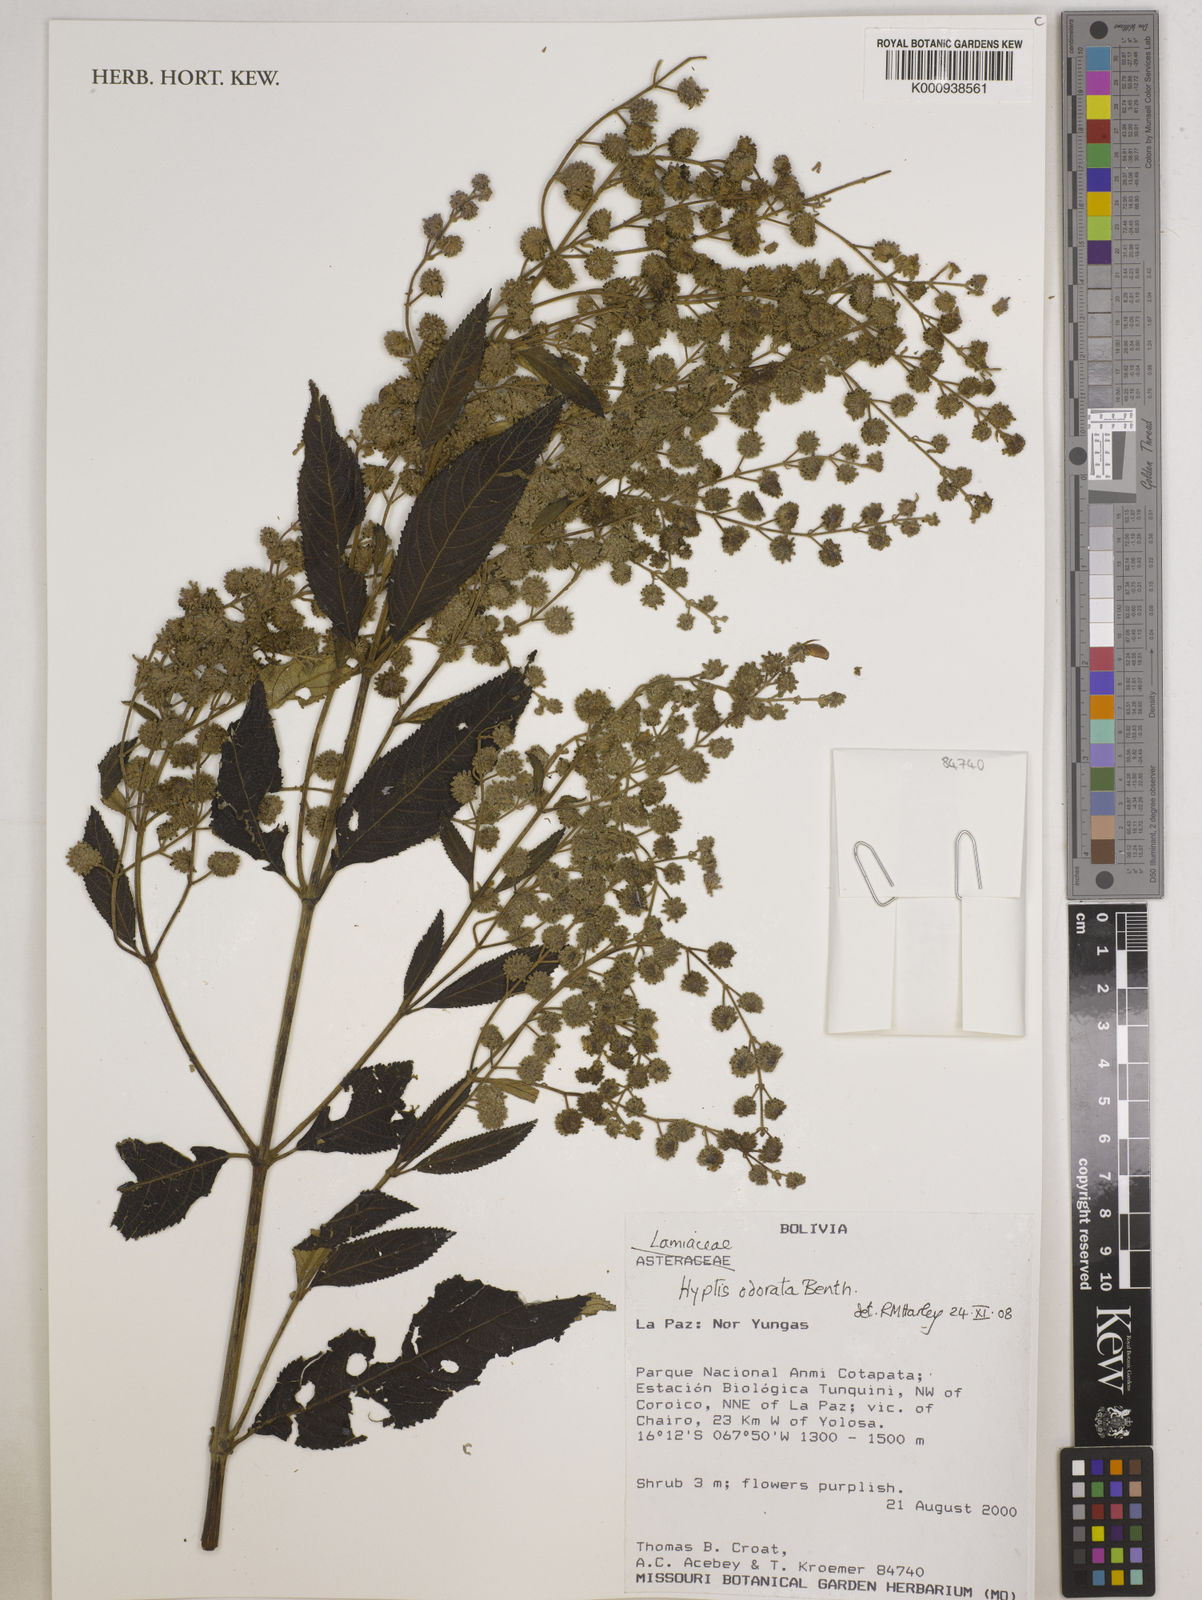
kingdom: Plantae
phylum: Tracheophyta
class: Magnoliopsida
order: Lamiales
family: Lamiaceae
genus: Hyptis
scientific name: Hyptis odorata
